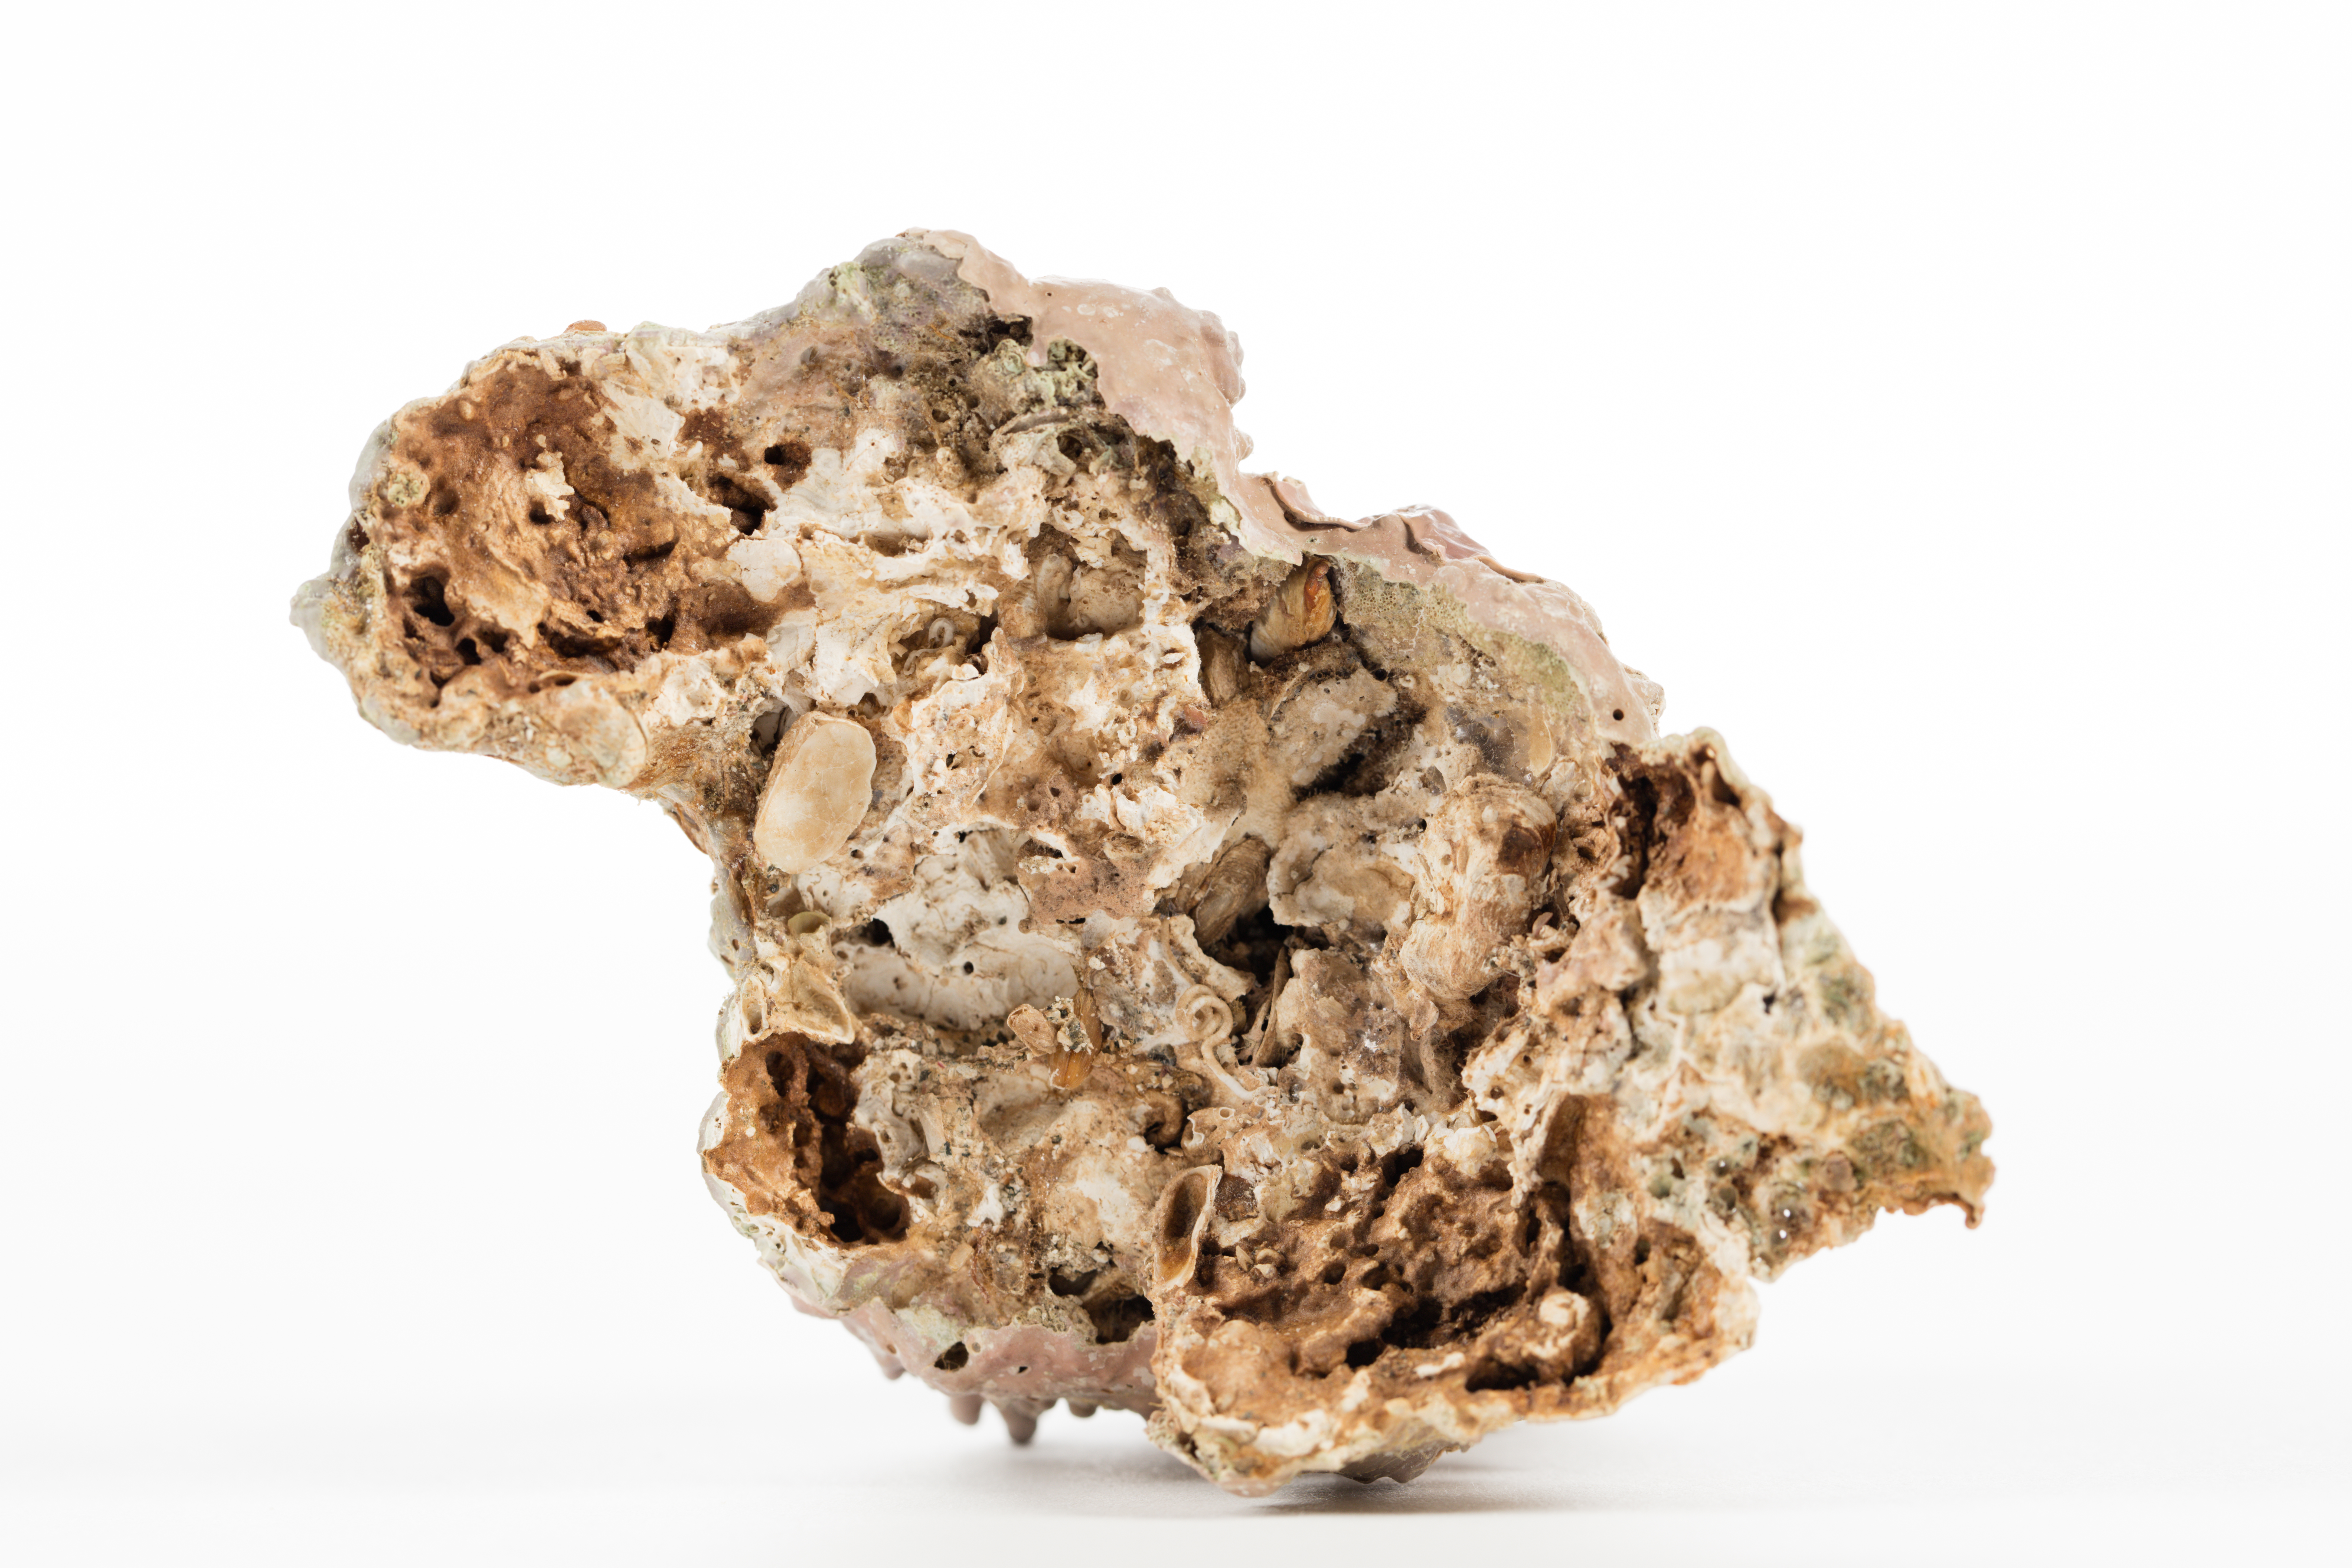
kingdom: Plantae
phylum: Rhodophyta
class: Florideophyceae
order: Corallinales
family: Mesophyllumaceae
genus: Mesophyllum
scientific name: Mesophyllum insigne
